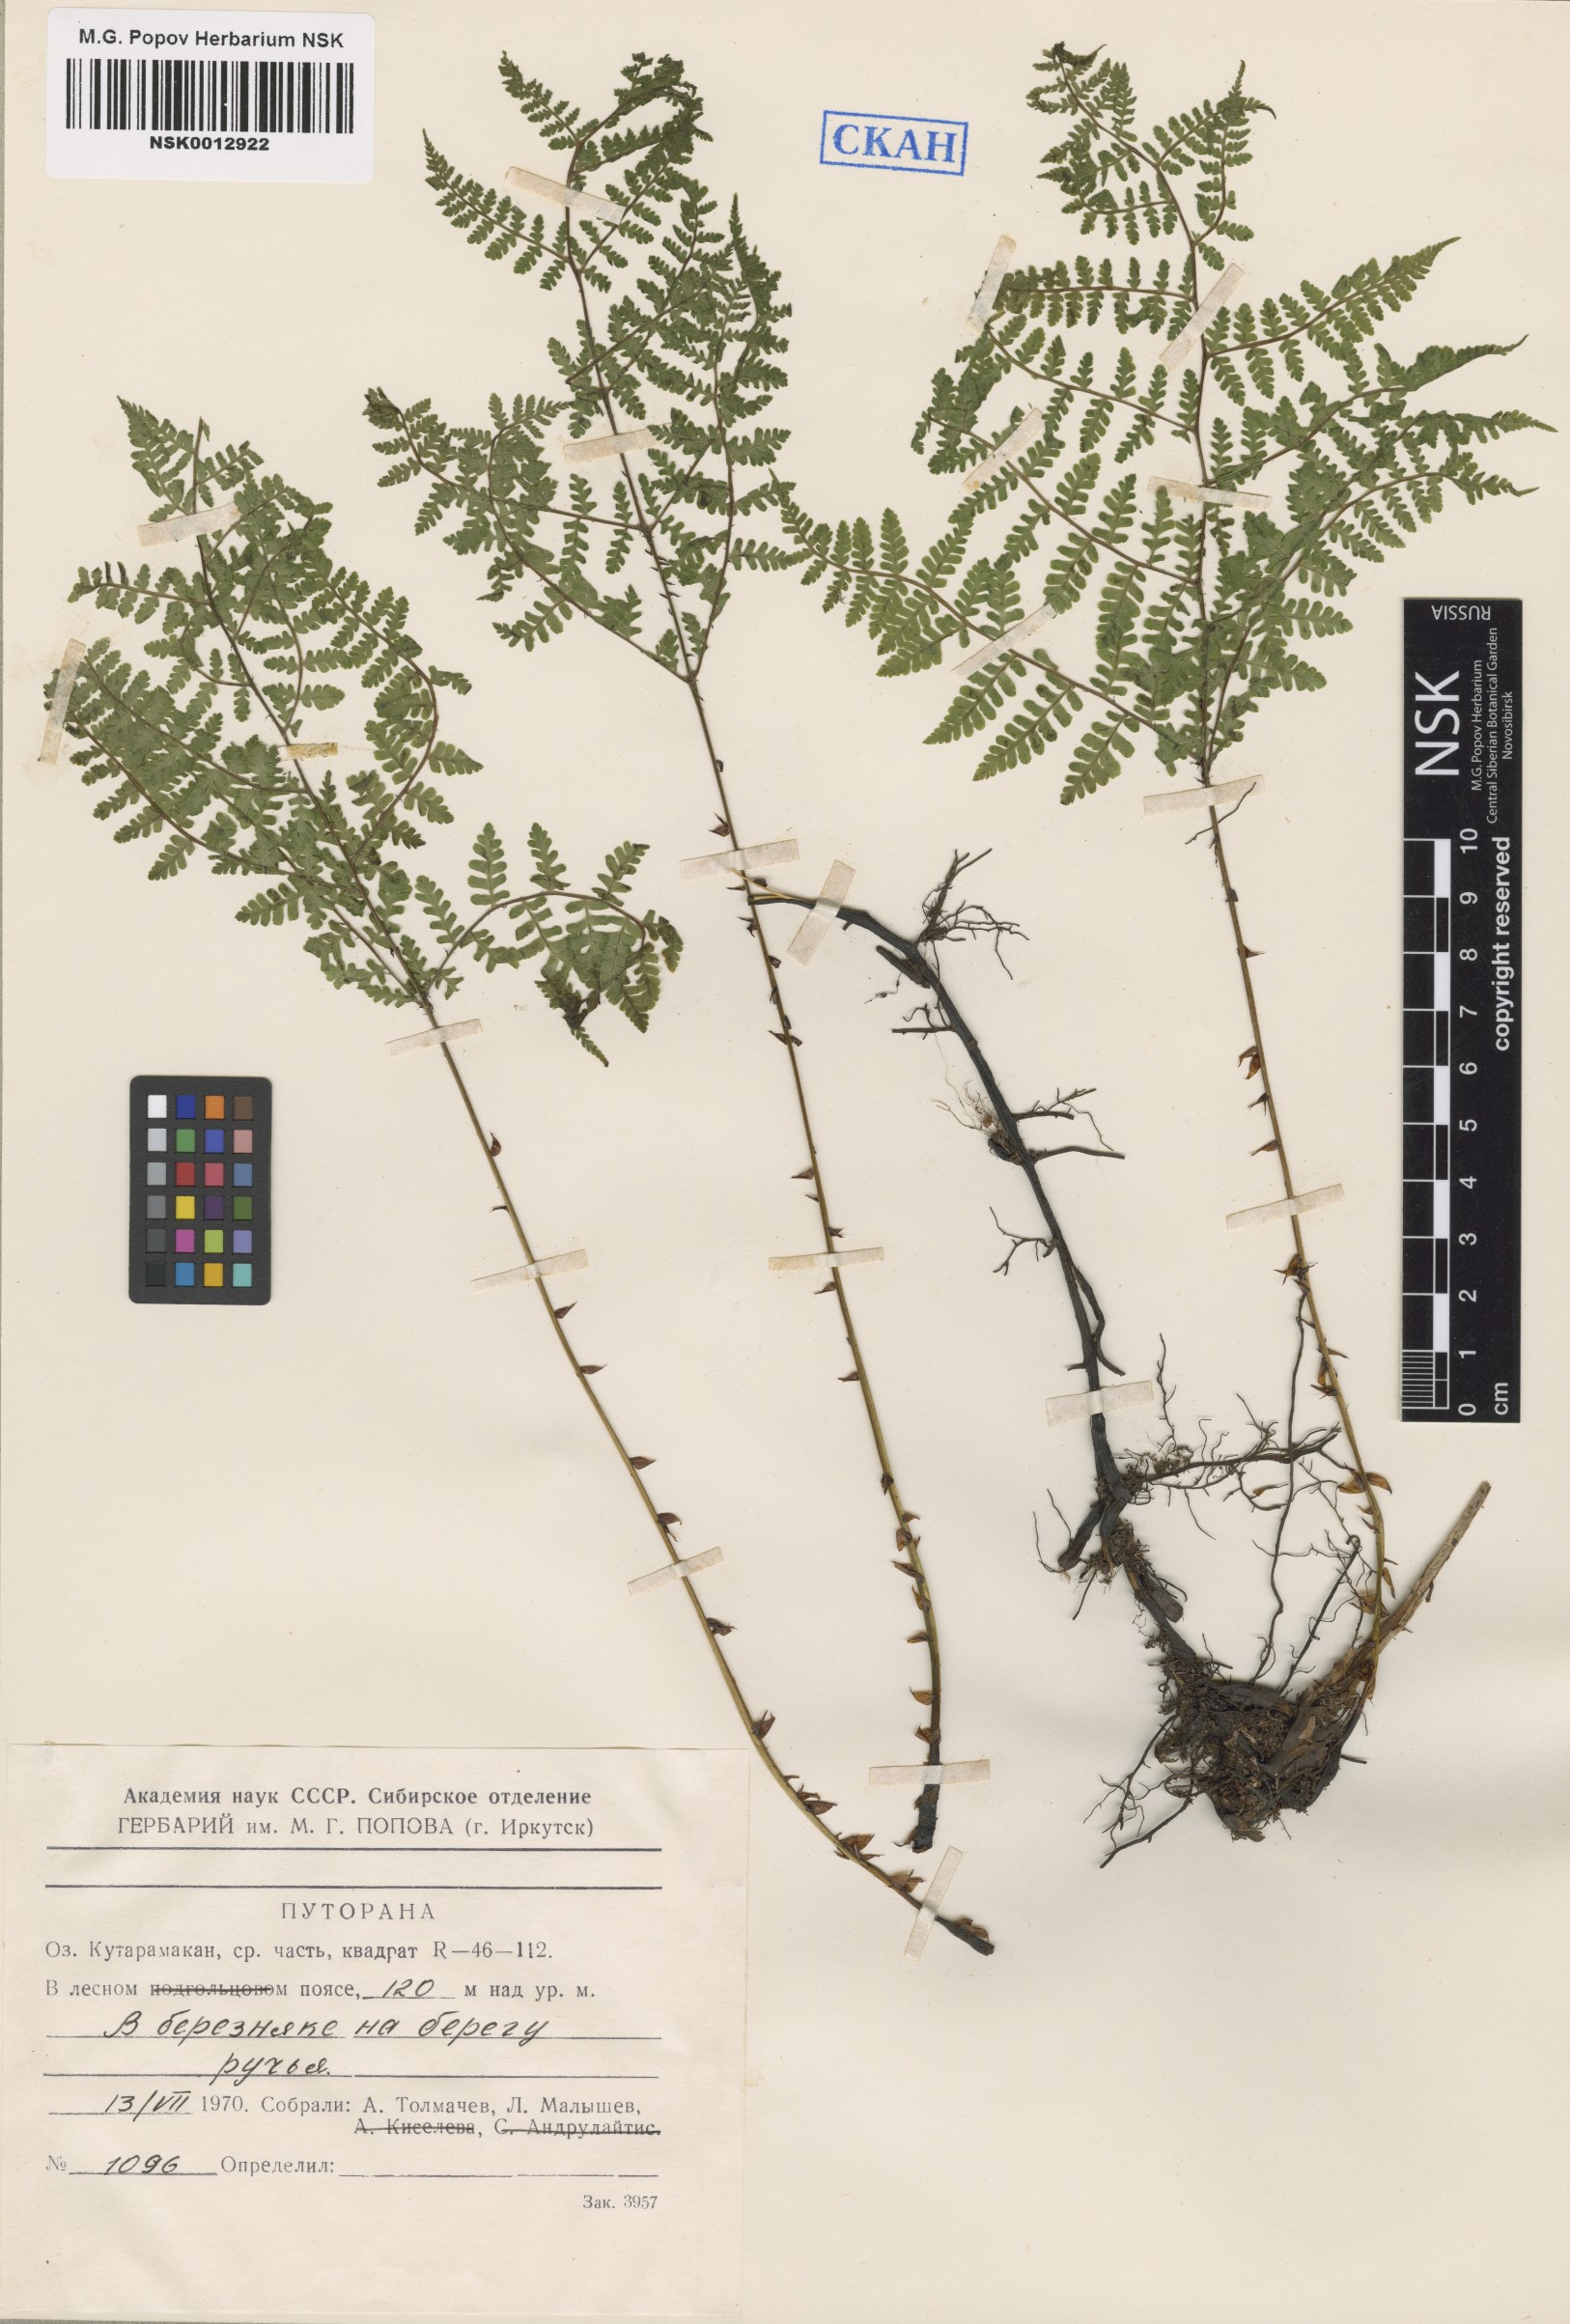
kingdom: Plantae
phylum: Tracheophyta
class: Polypodiopsida
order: Polypodiales
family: Athyriaceae
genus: Diplazium
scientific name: Diplazium sibiricum
